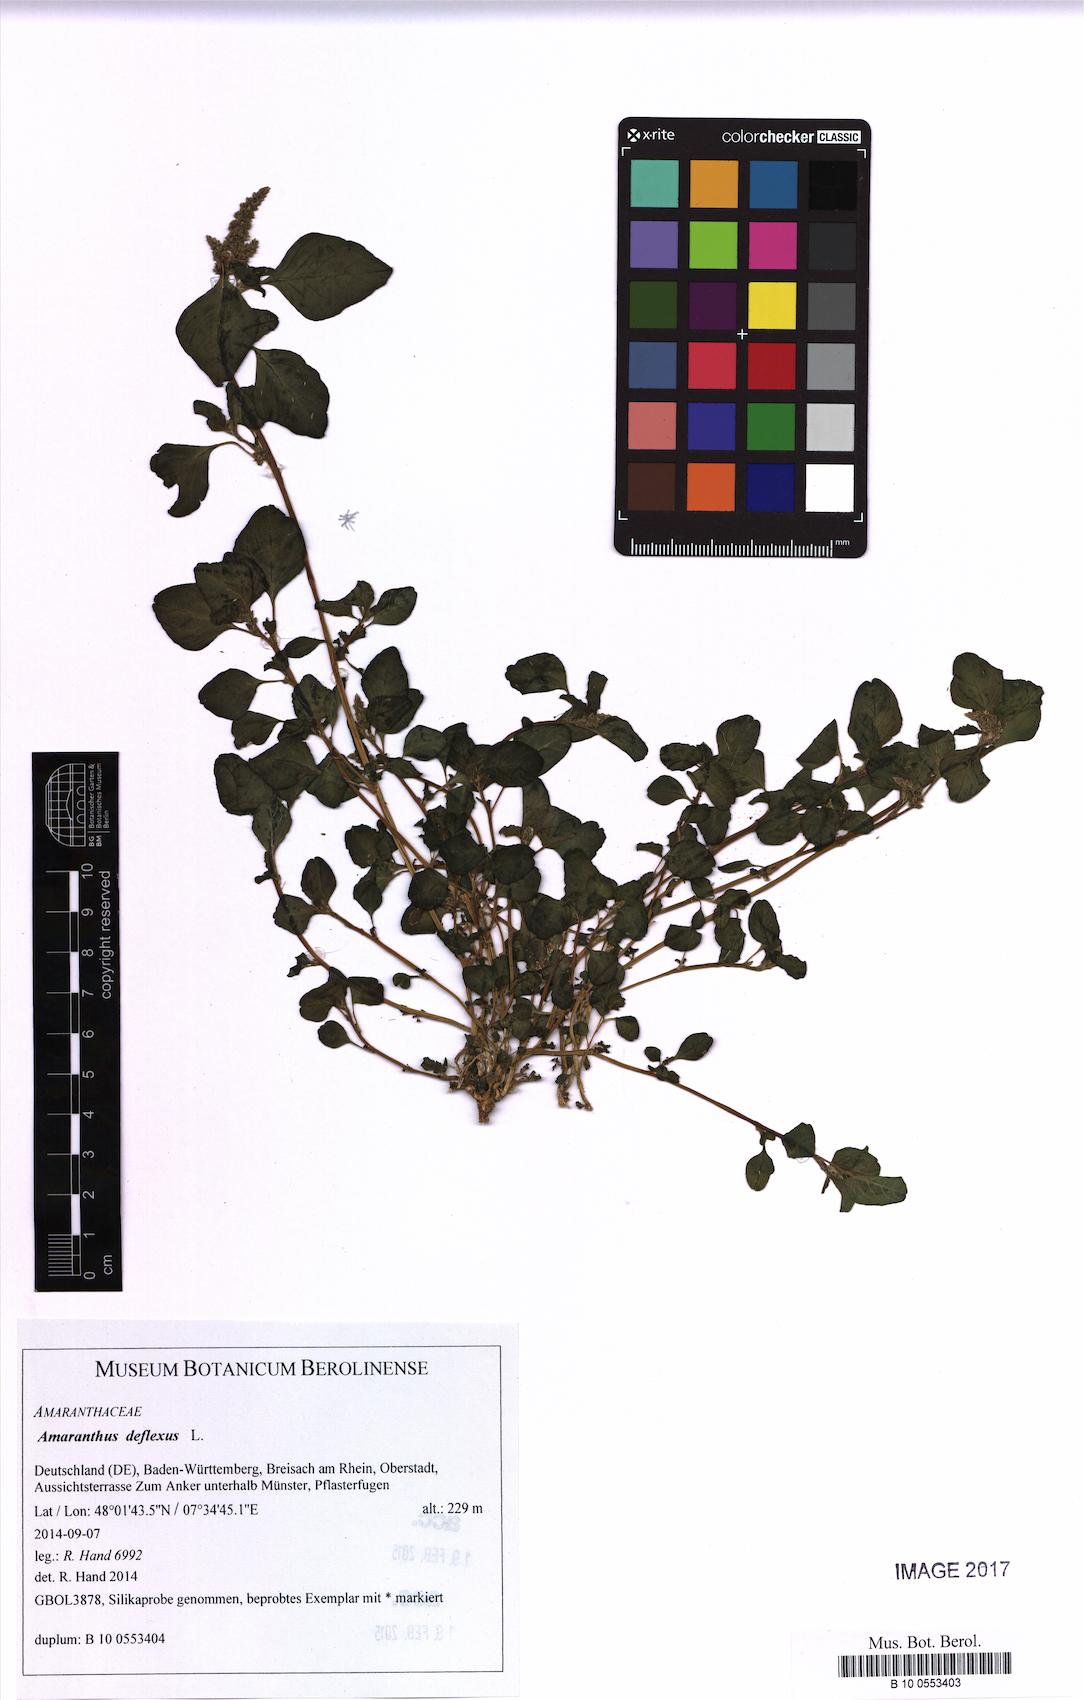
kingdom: Plantae
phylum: Tracheophyta
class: Magnoliopsida
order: Caryophyllales
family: Amaranthaceae
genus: Amaranthus
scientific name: Amaranthus deflexus
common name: Perennial pigweed
